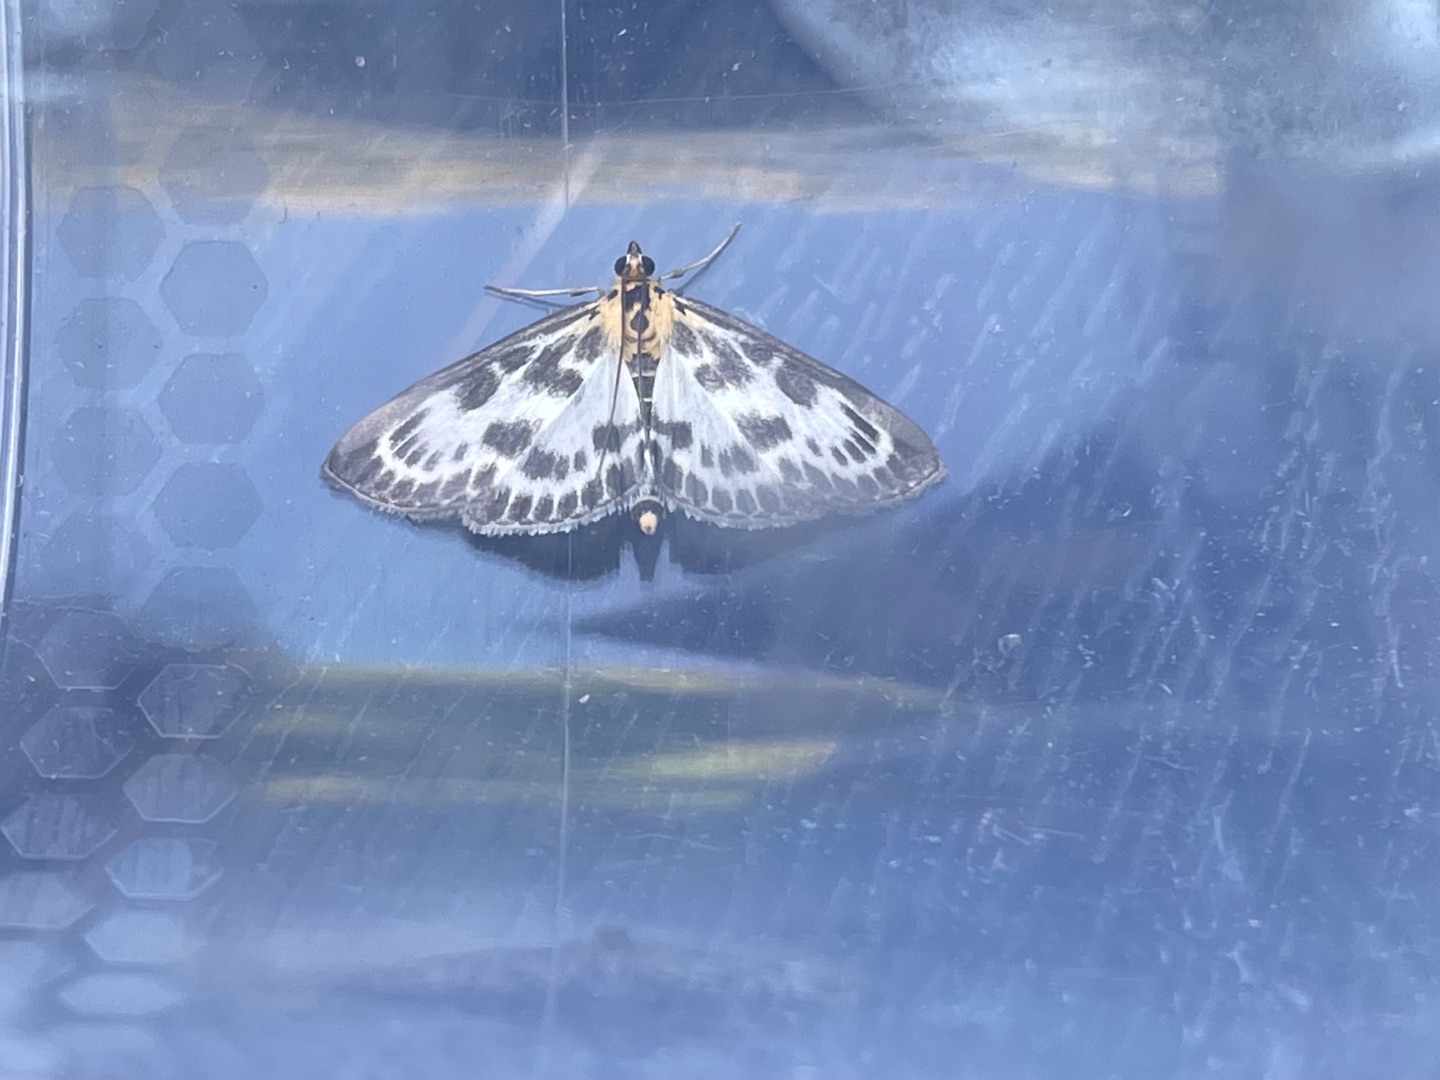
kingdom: Animalia
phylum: Arthropoda
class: Insecta
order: Lepidoptera
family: Crambidae
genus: Anania
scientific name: Anania hortulata
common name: Nældehalvmøl
